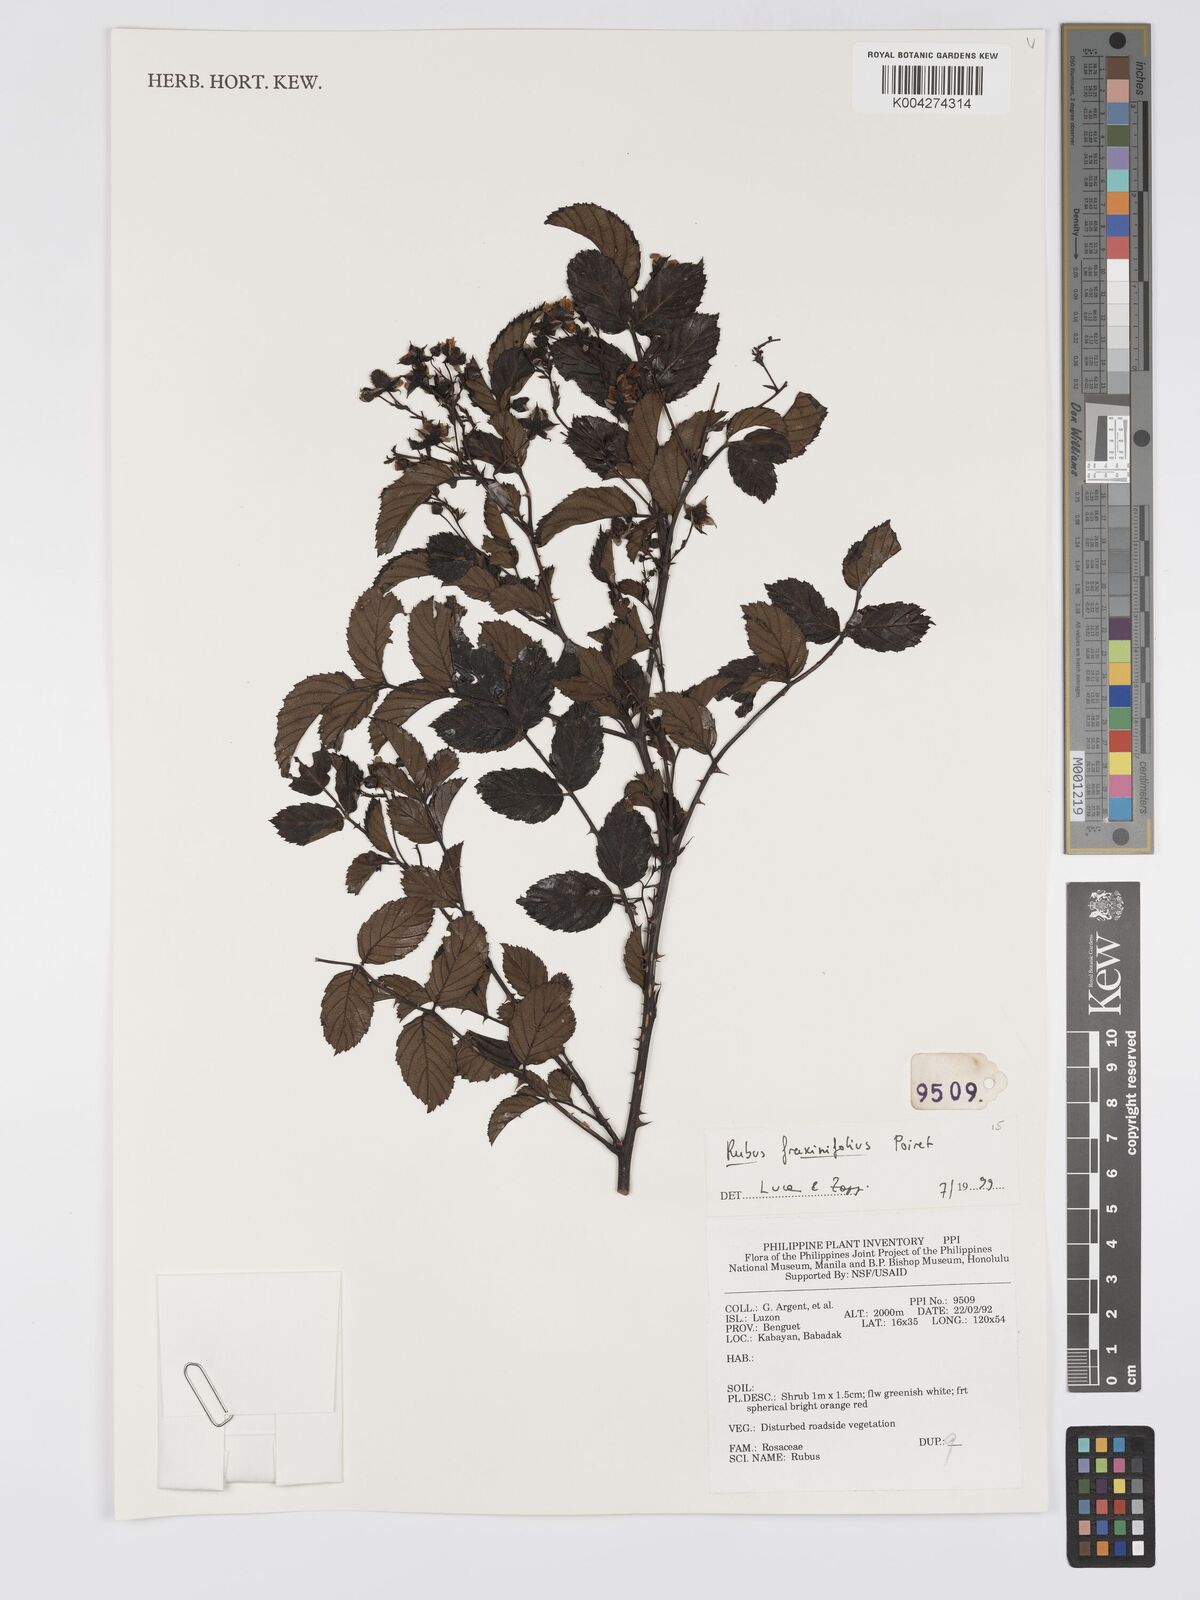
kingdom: Plantae
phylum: Tracheophyta
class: Magnoliopsida
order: Rosales
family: Rosaceae
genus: Rubus
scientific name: Rubus fraxinifolius
